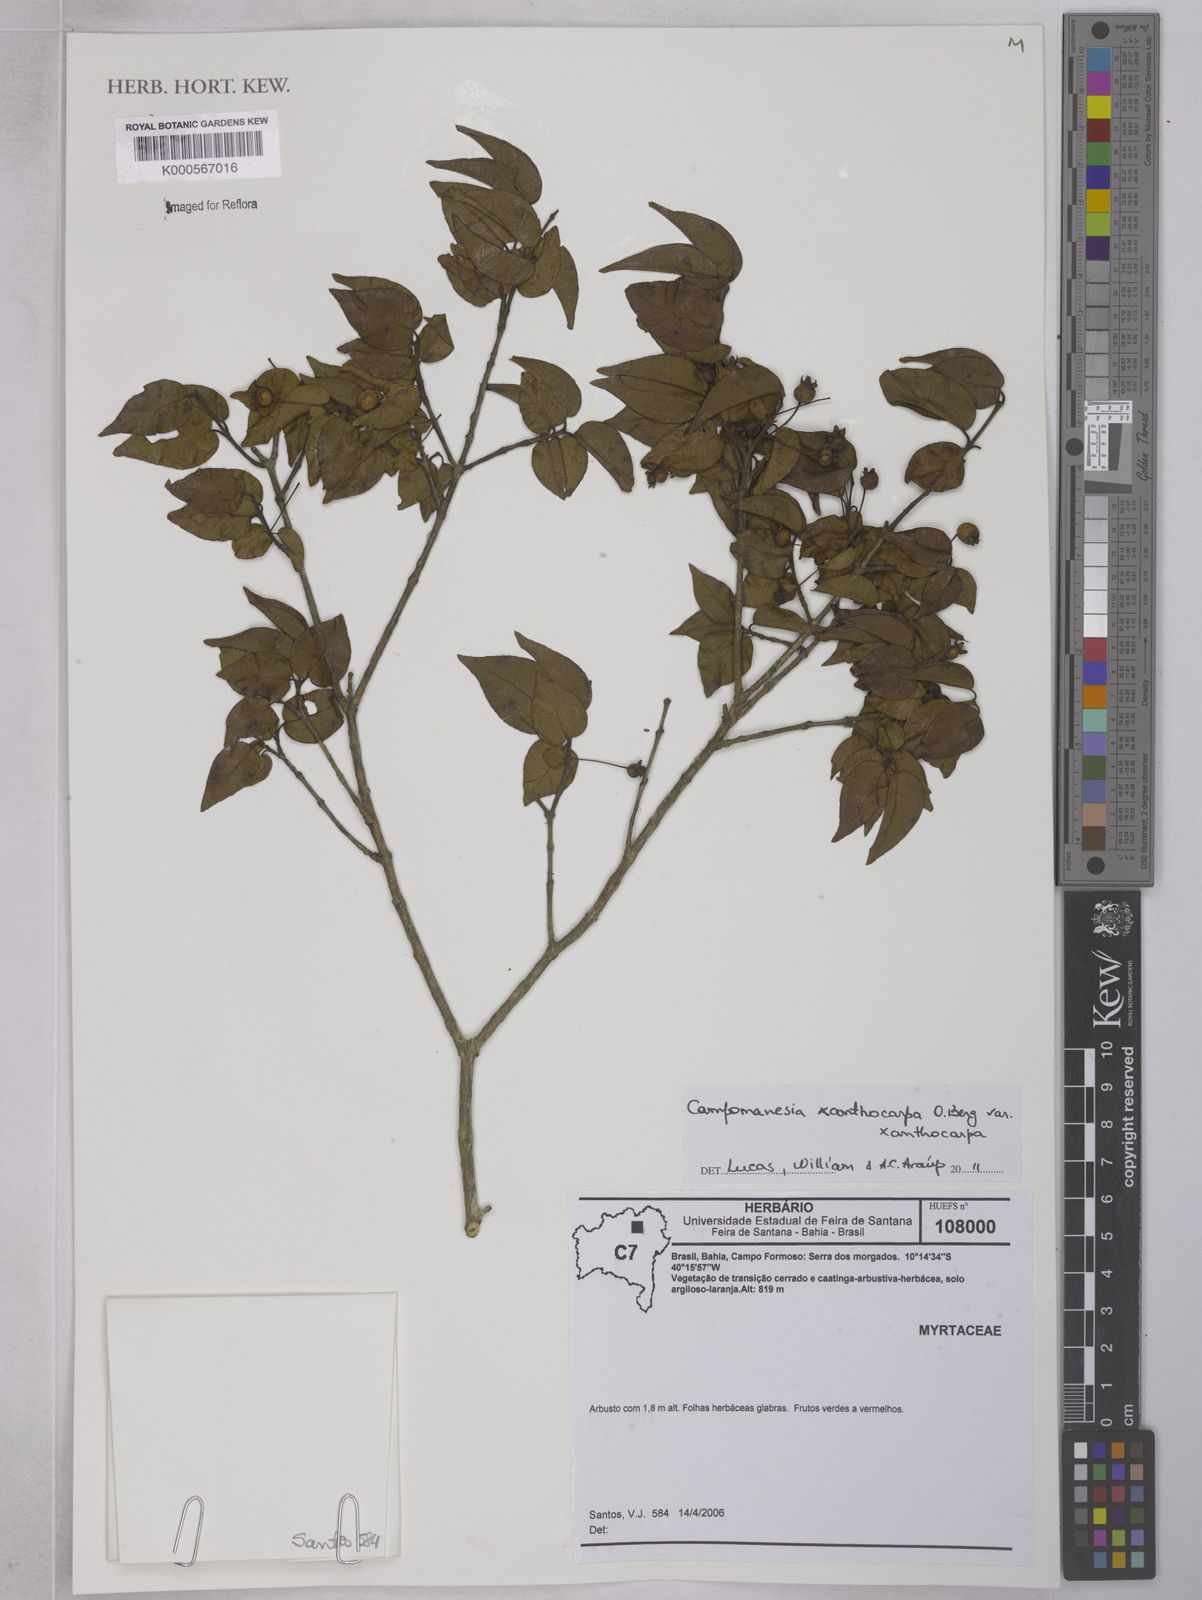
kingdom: Plantae
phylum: Tracheophyta
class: Magnoliopsida
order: Myrtales
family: Myrtaceae
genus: Campomanesia
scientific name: Campomanesia xanthocarpa
